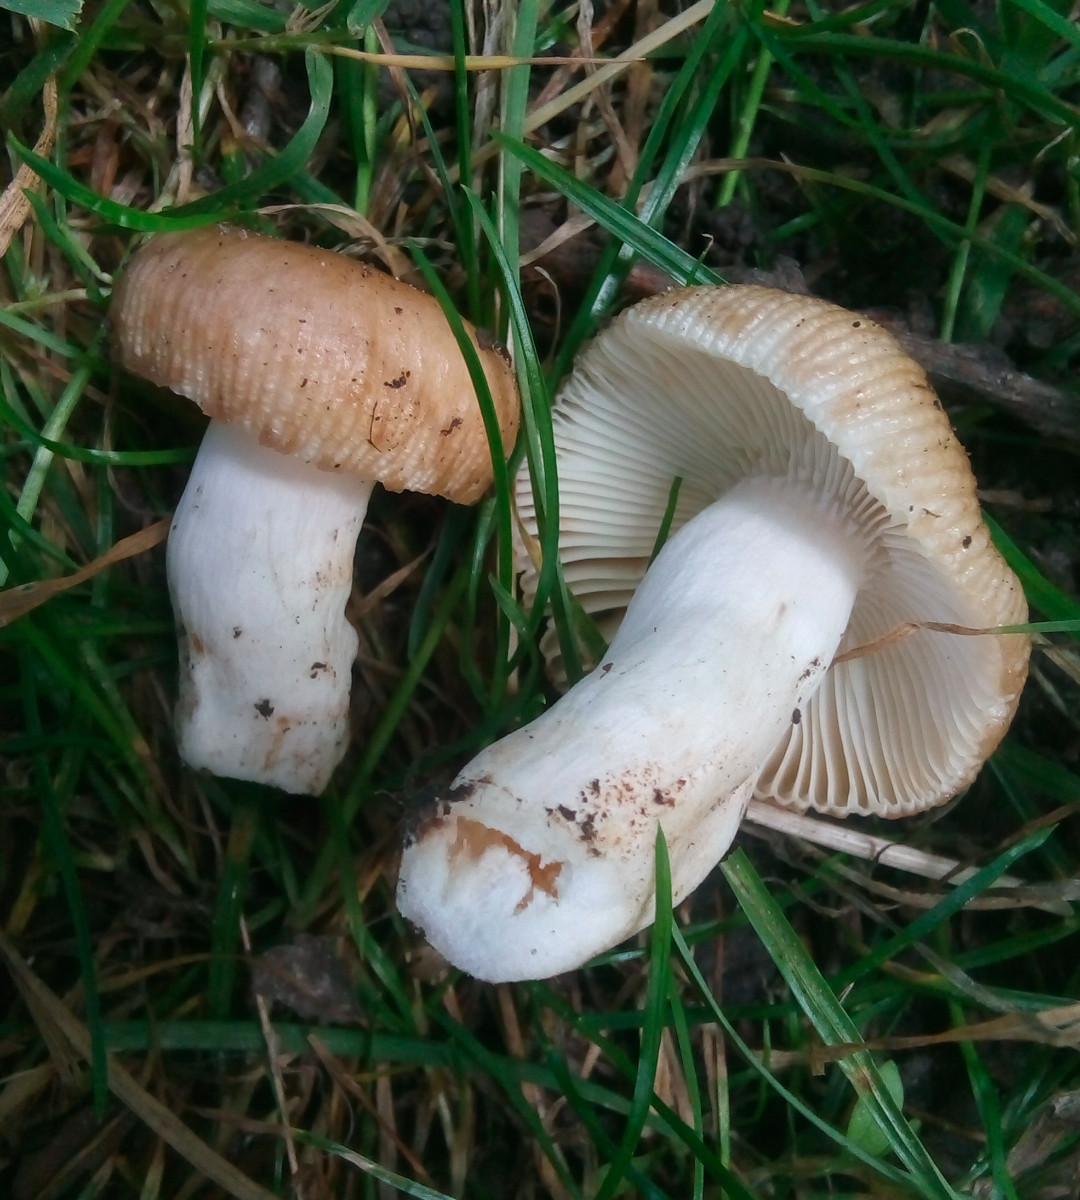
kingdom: Fungi
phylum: Basidiomycota
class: Agaricomycetes
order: Russulales
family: Russulaceae
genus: Russula
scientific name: Russula recondita
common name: mild kam-skørhat
